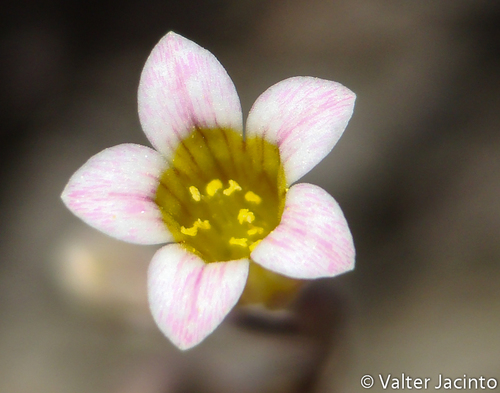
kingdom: Plantae
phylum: Tracheophyta
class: Magnoliopsida
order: Saxifragales
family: Crassulaceae
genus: Sedum
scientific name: Sedum mucizonia
